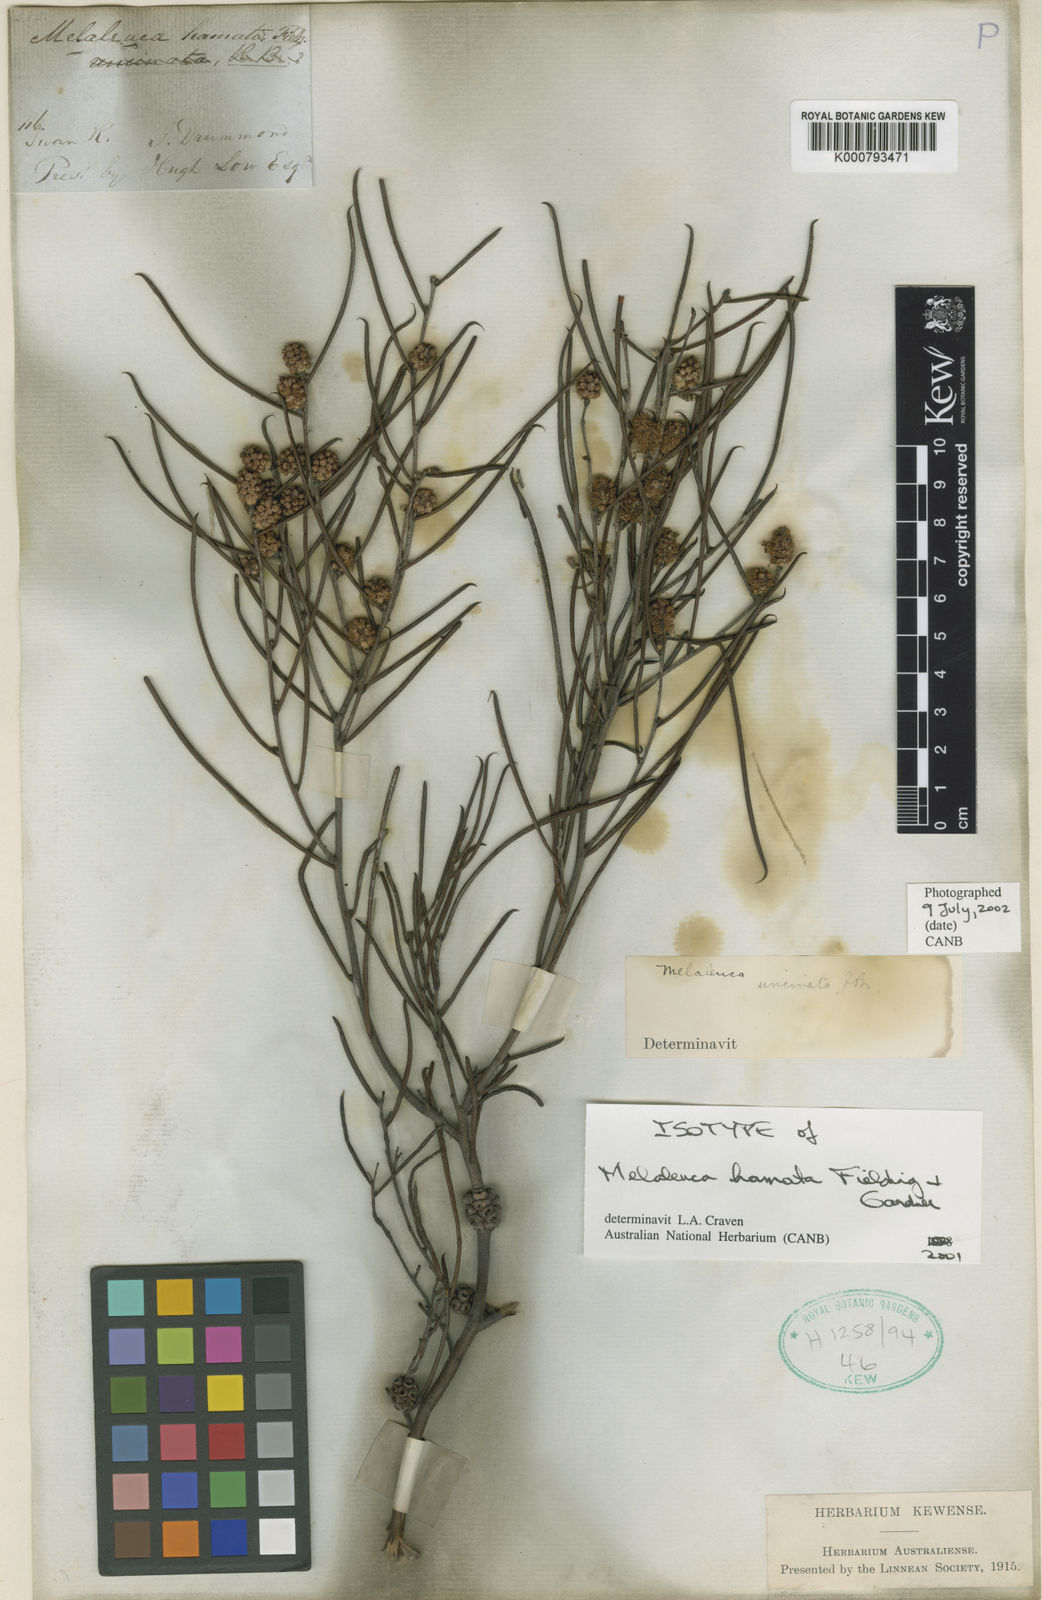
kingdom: Plantae
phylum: Tracheophyta
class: Magnoliopsida
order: Myrtales
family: Myrtaceae
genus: Melaleuca
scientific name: Melaleuca uncinata
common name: Broom honey myrtle
